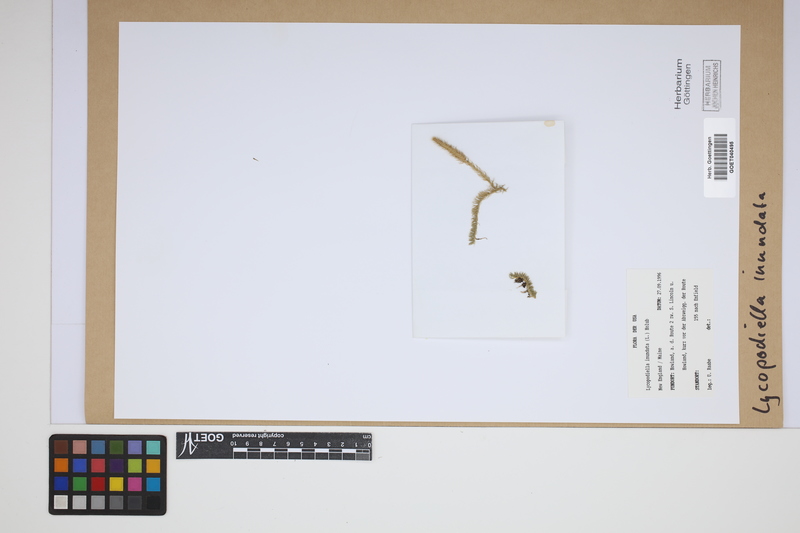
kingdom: Plantae
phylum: Tracheophyta
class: Lycopodiopsida
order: Lycopodiales
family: Lycopodiaceae
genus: Lycopodiella
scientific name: Lycopodiella inundata
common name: Marsh clubmoss
